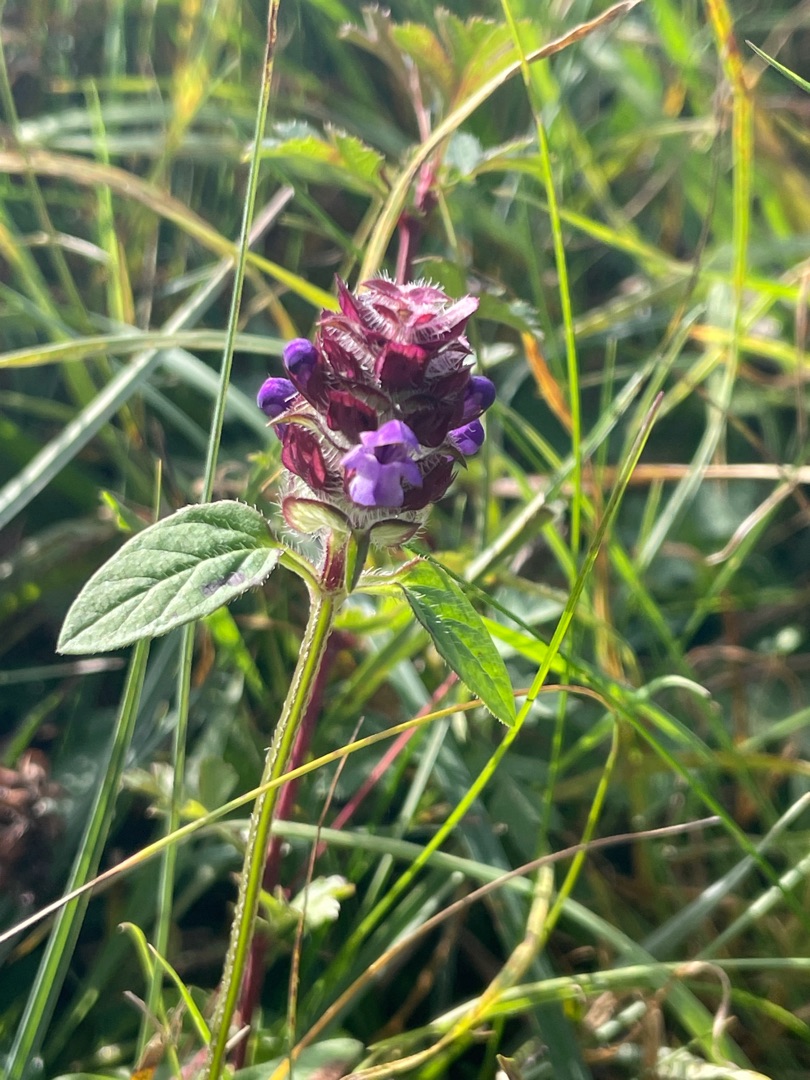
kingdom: Plantae
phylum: Tracheophyta
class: Magnoliopsida
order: Lamiales
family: Lamiaceae
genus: Prunella
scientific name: Prunella vulgaris
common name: Almindelig brunelle
